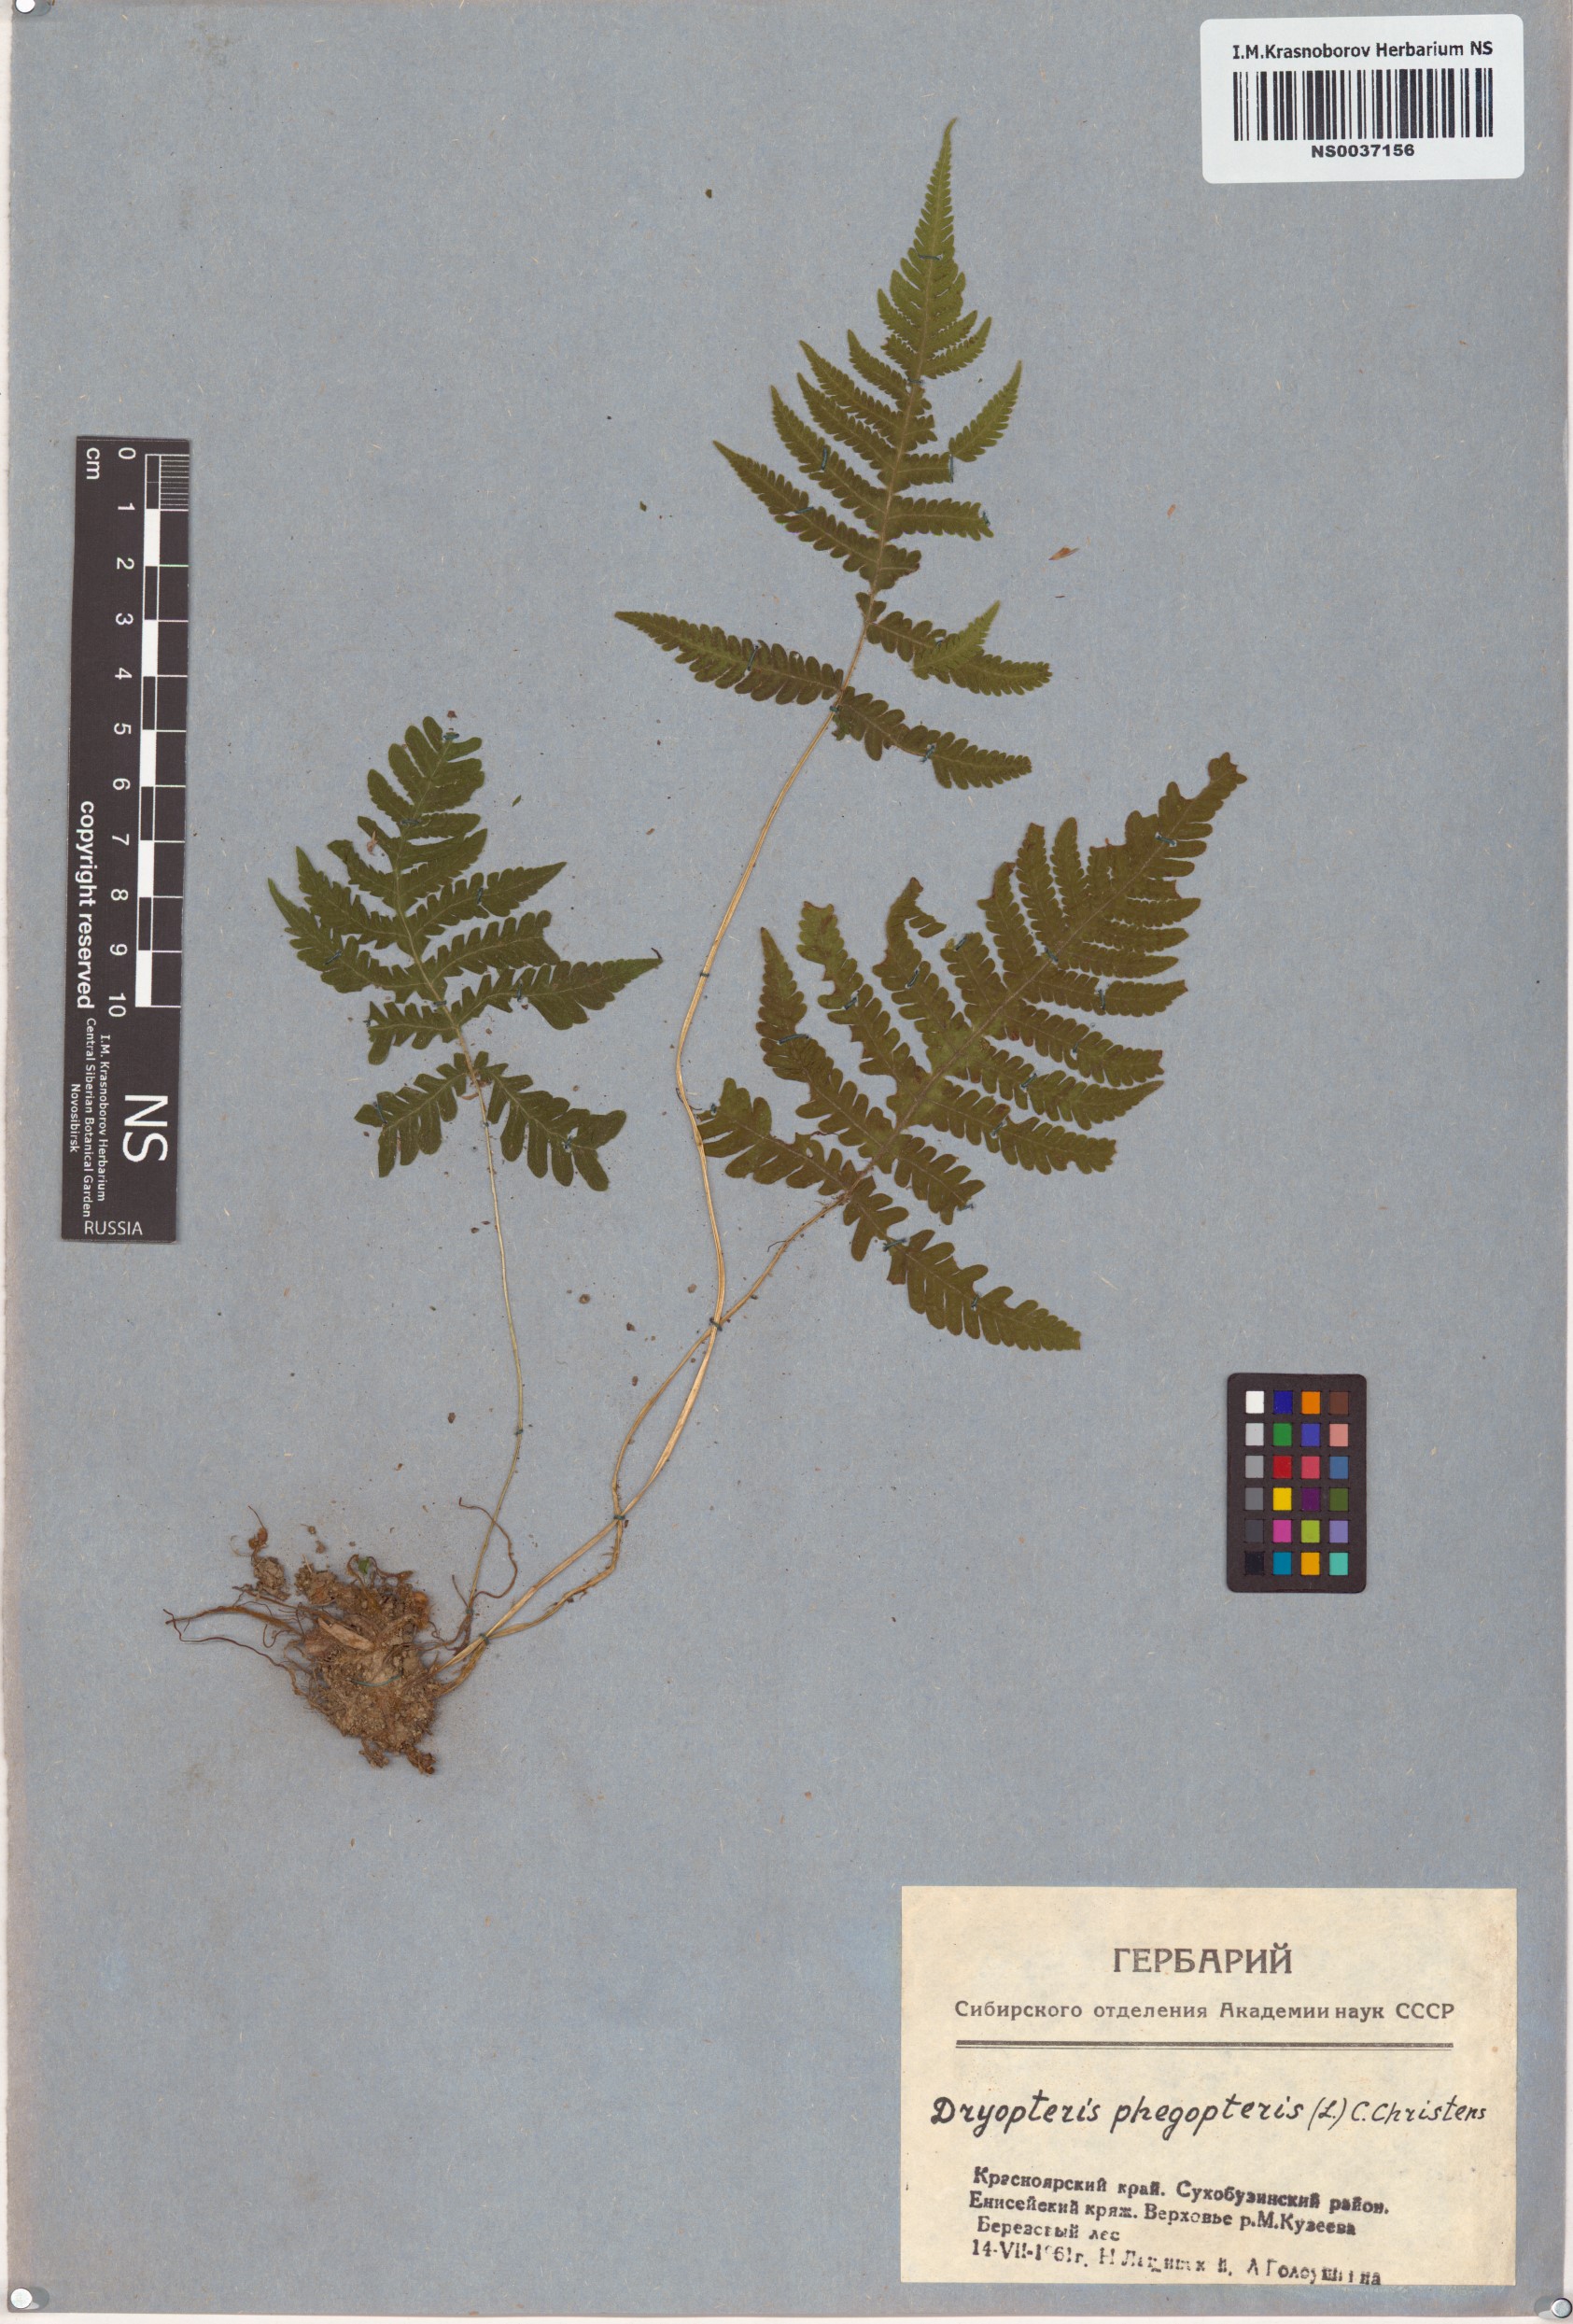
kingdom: Plantae
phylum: Tracheophyta
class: Polypodiopsida
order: Polypodiales
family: Thelypteridaceae
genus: Phegopteris
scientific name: Phegopteris connectilis
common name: Beech fern
